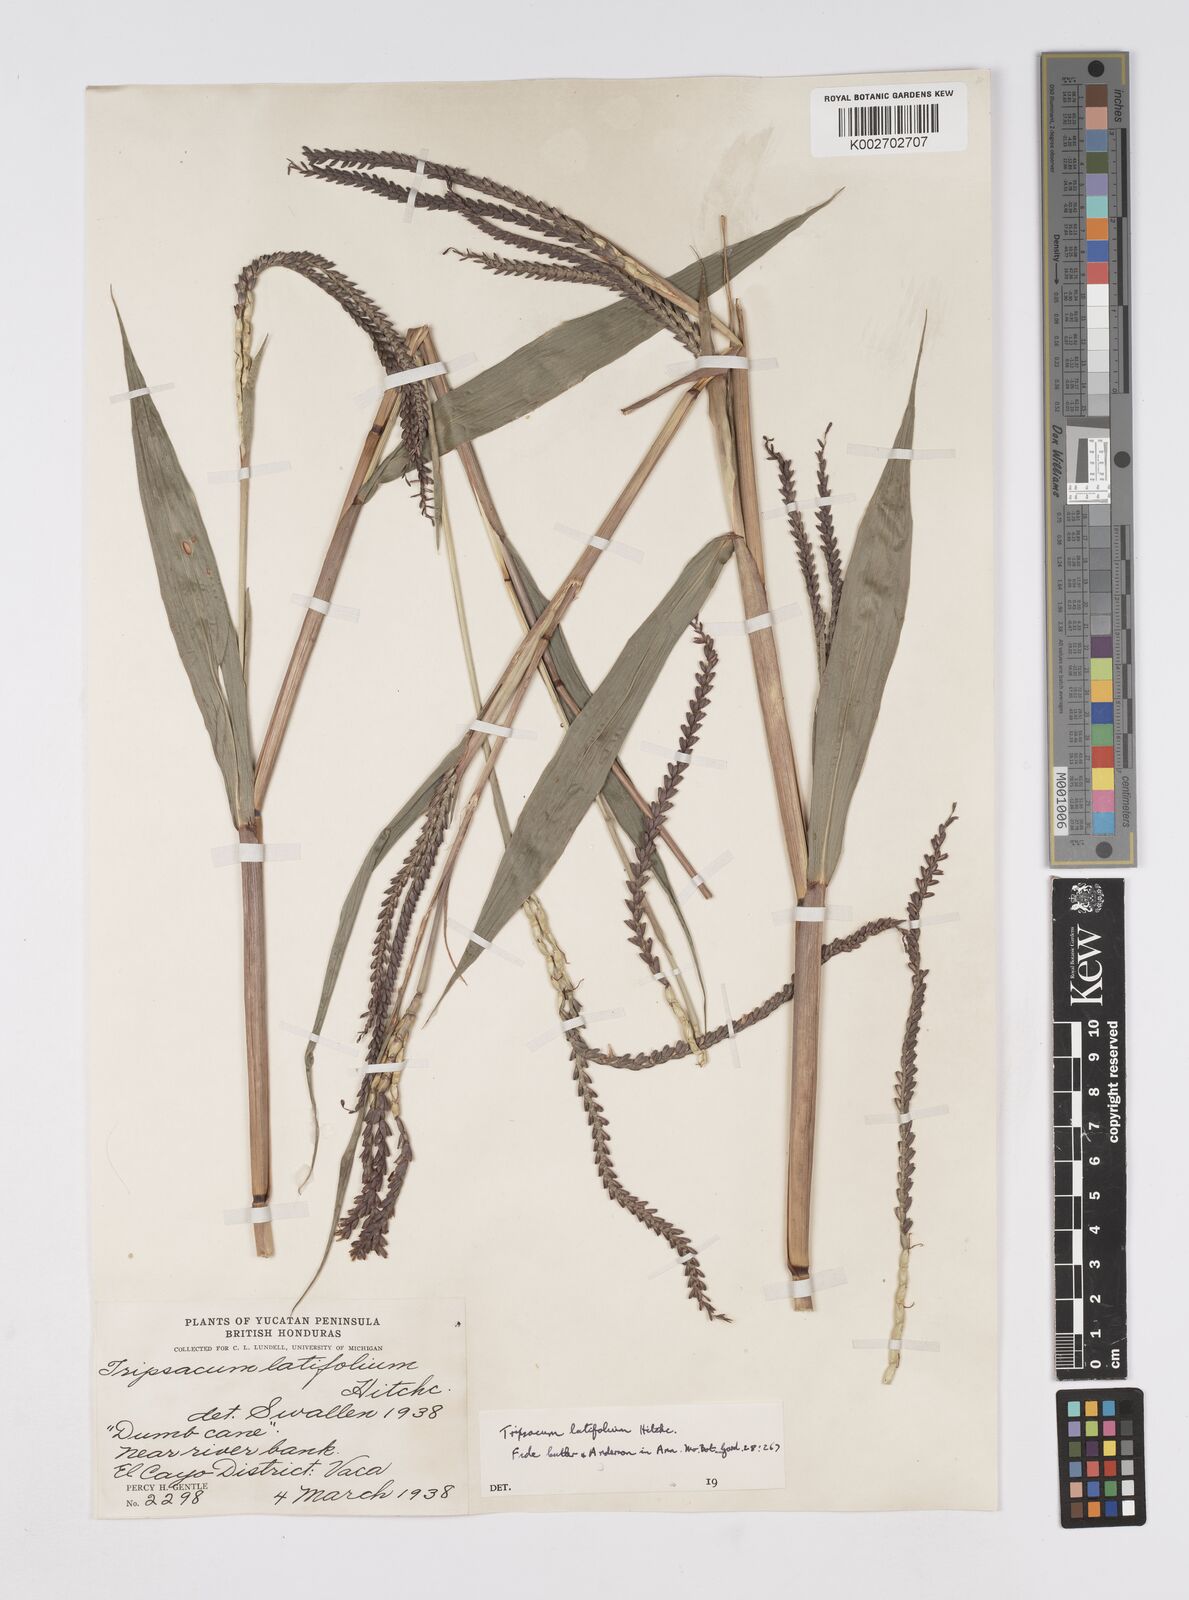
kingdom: Plantae
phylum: Tracheophyta
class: Liliopsida
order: Poales
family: Poaceae
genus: Tripsacum
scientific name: Tripsacum latifolium
